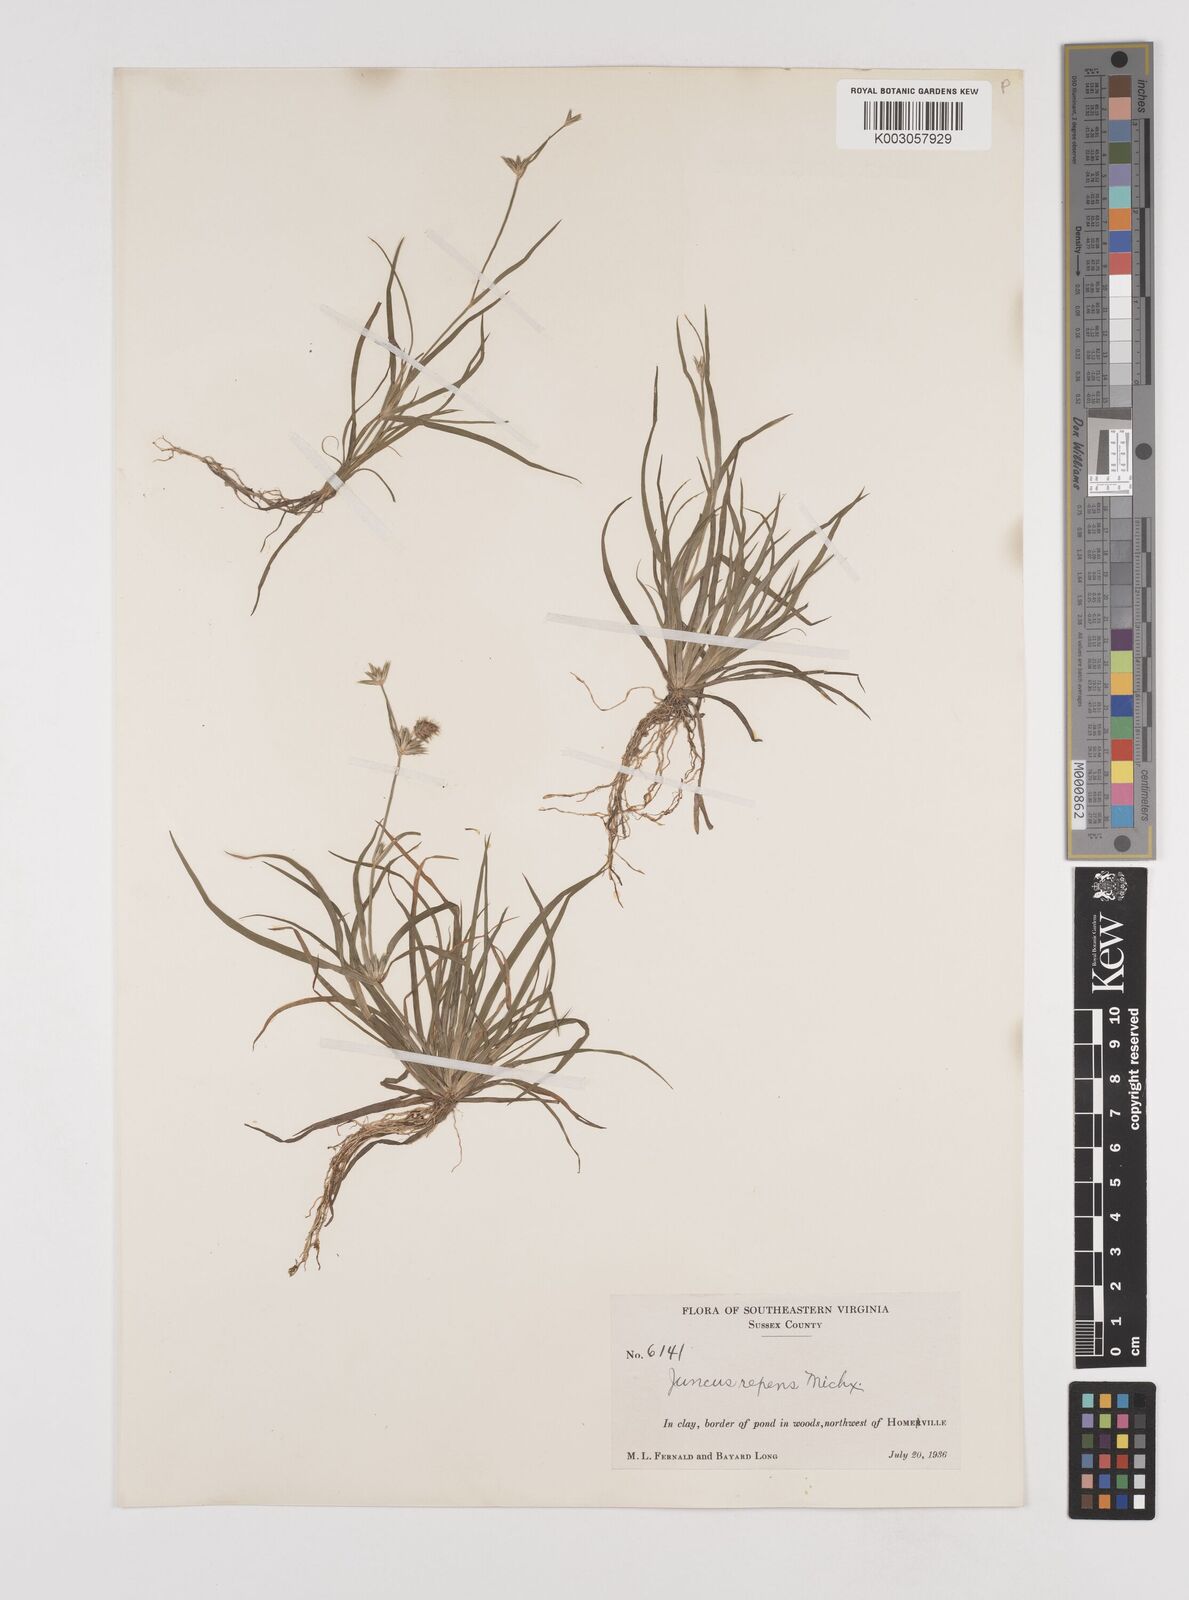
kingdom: Plantae
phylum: Tracheophyta
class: Liliopsida
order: Poales
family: Juncaceae
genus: Juncus
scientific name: Juncus repens
